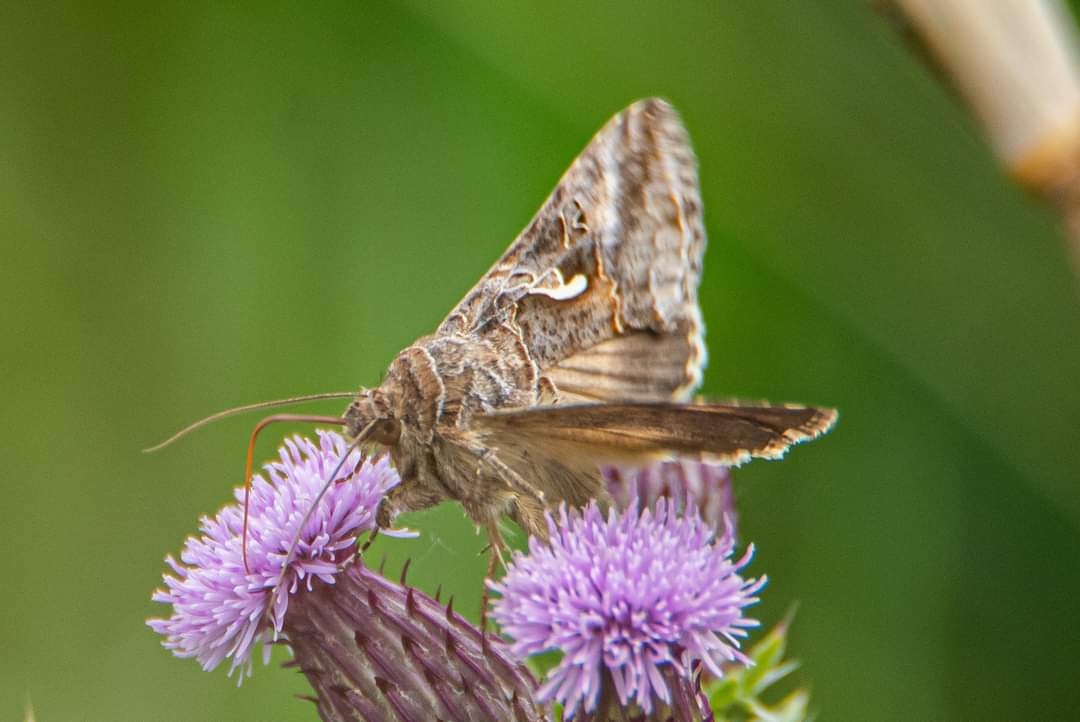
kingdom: Animalia
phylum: Arthropoda
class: Insecta
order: Lepidoptera
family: Noctuidae
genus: Autographa
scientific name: Autographa gamma
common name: Gammaugle
